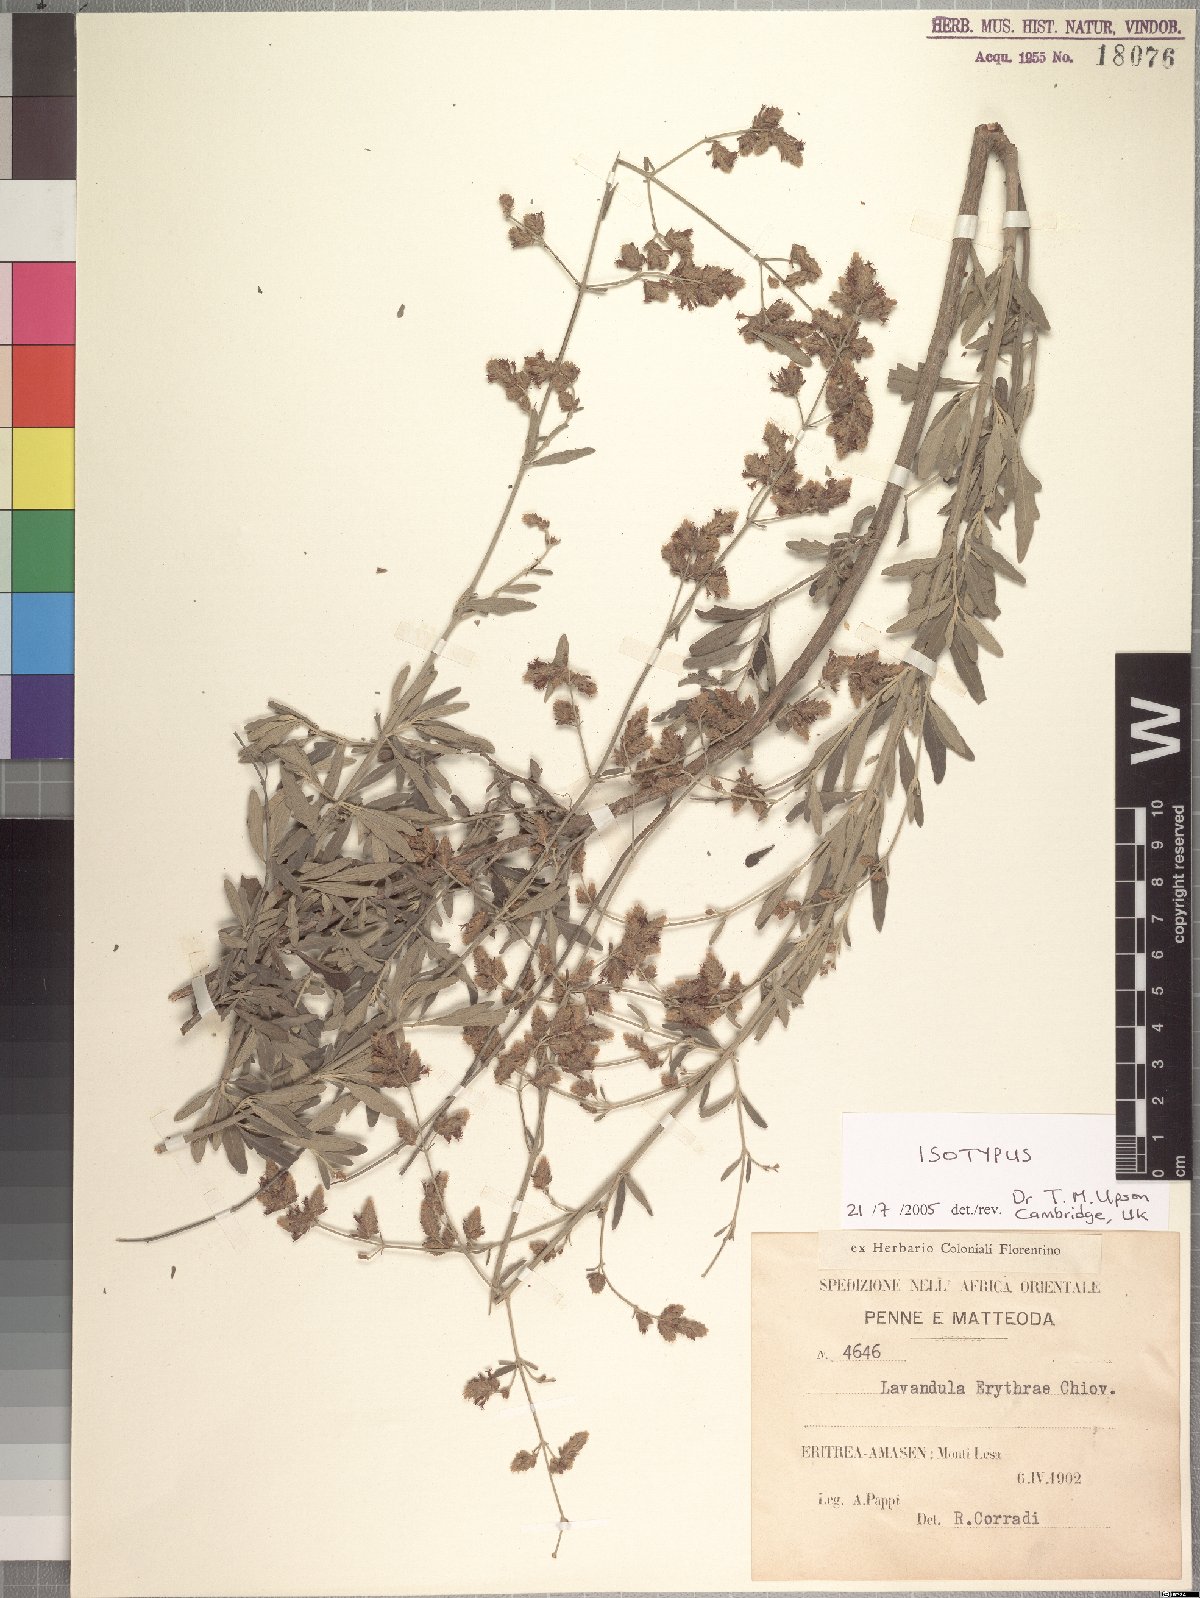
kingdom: Plantae
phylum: Tracheophyta
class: Magnoliopsida
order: Lamiales
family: Lamiaceae
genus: Lavandula
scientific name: Lavandula erythraeae
